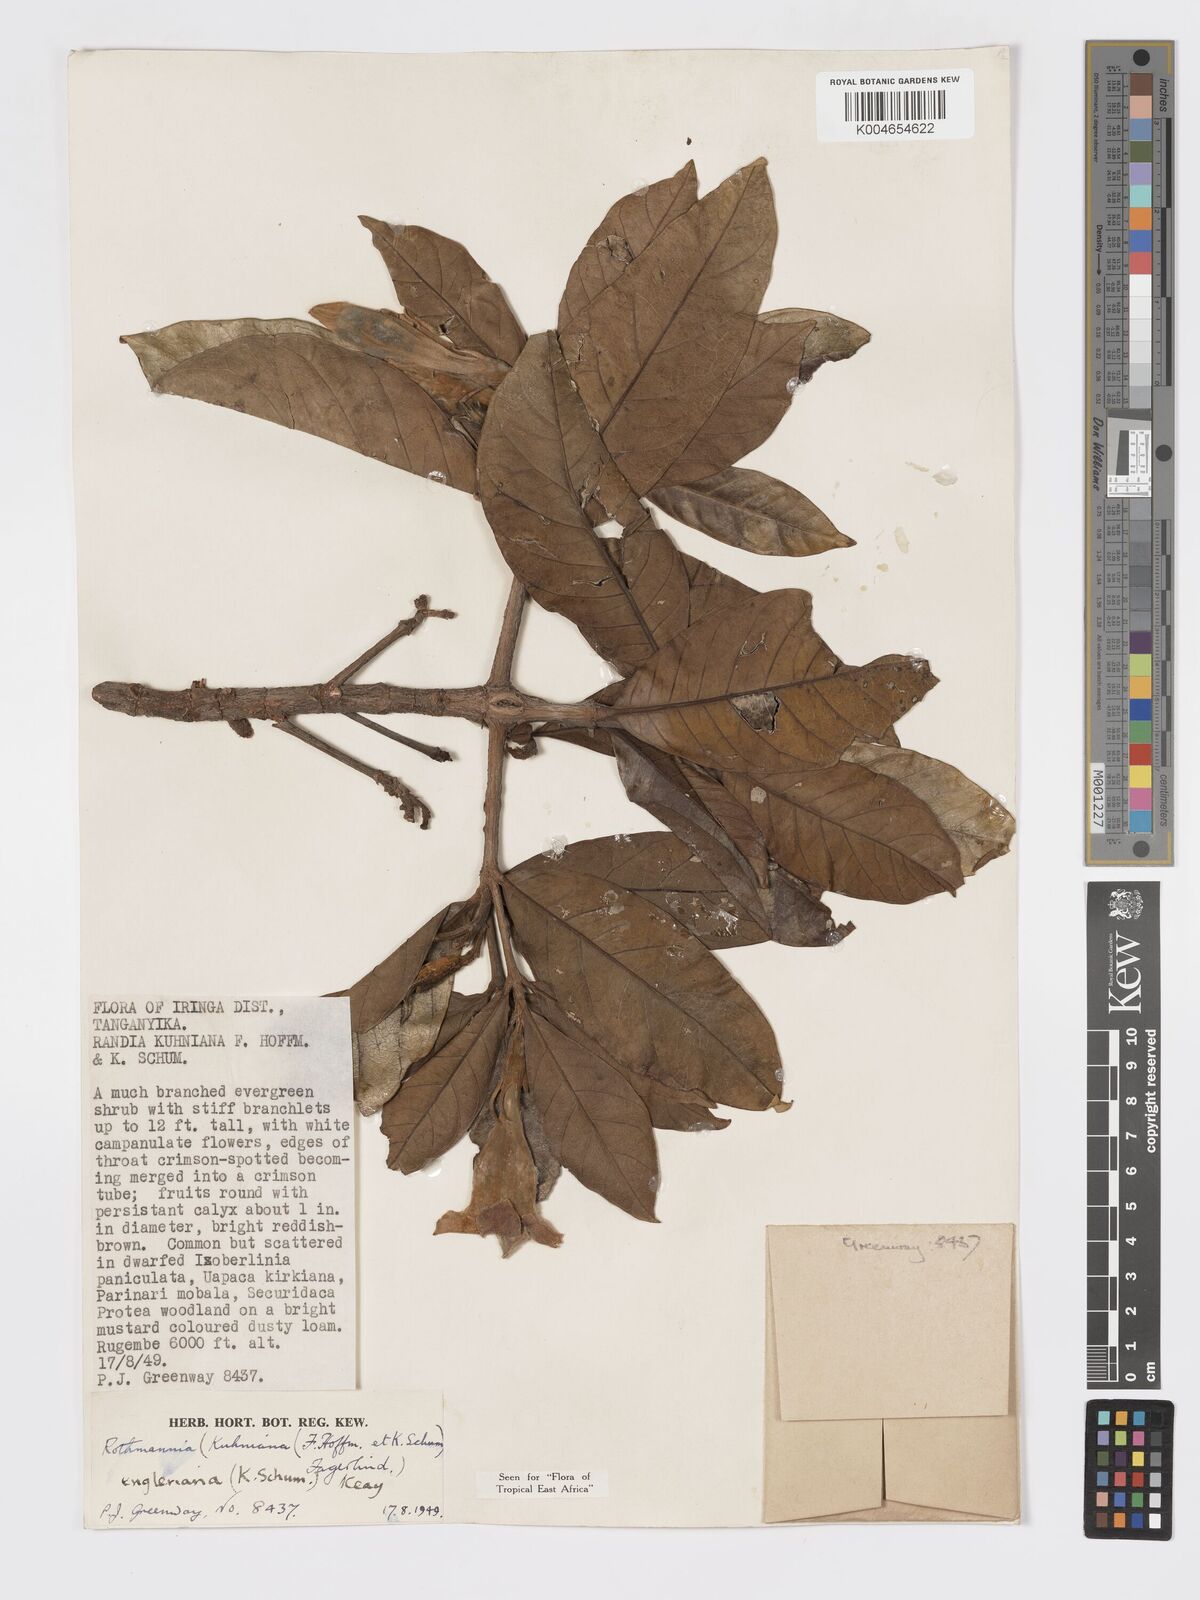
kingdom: Plantae
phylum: Tracheophyta
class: Magnoliopsida
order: Gentianales
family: Rubiaceae
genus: Rothmannia
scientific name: Rothmannia engleriana
